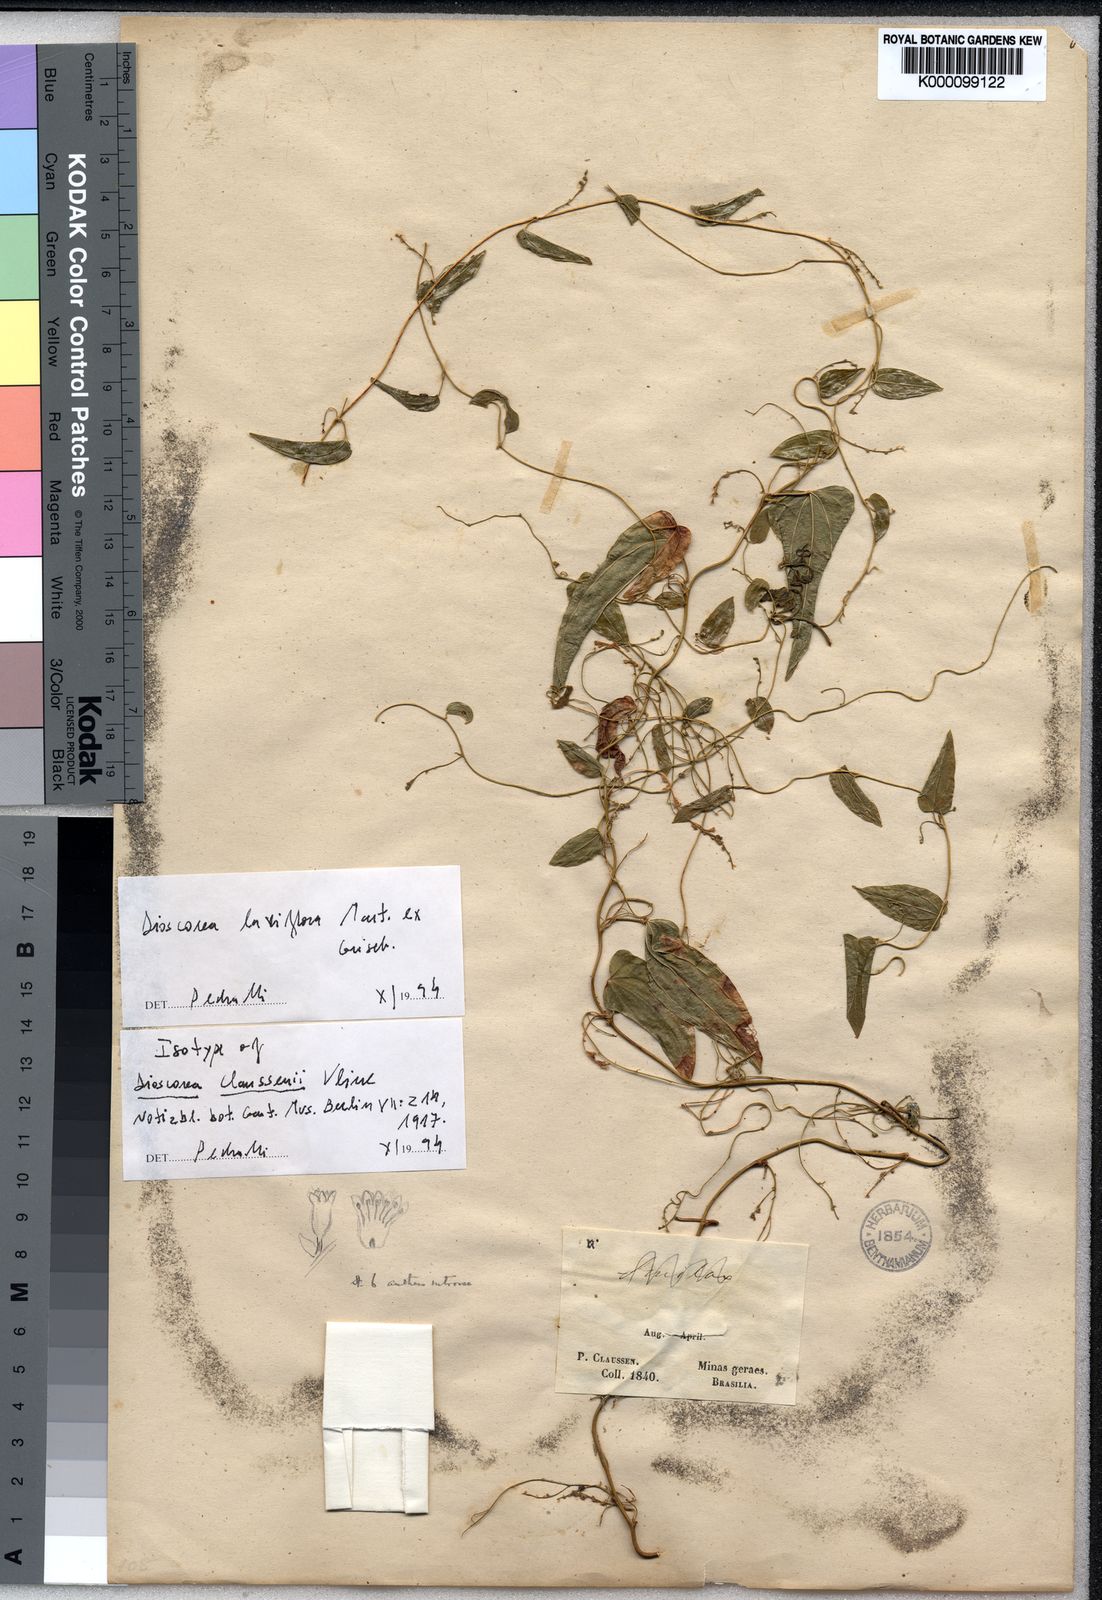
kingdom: Plantae
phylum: Tracheophyta
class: Liliopsida
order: Dioscoreales
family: Dioscoreaceae
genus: Dioscorea
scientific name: Dioscorea
